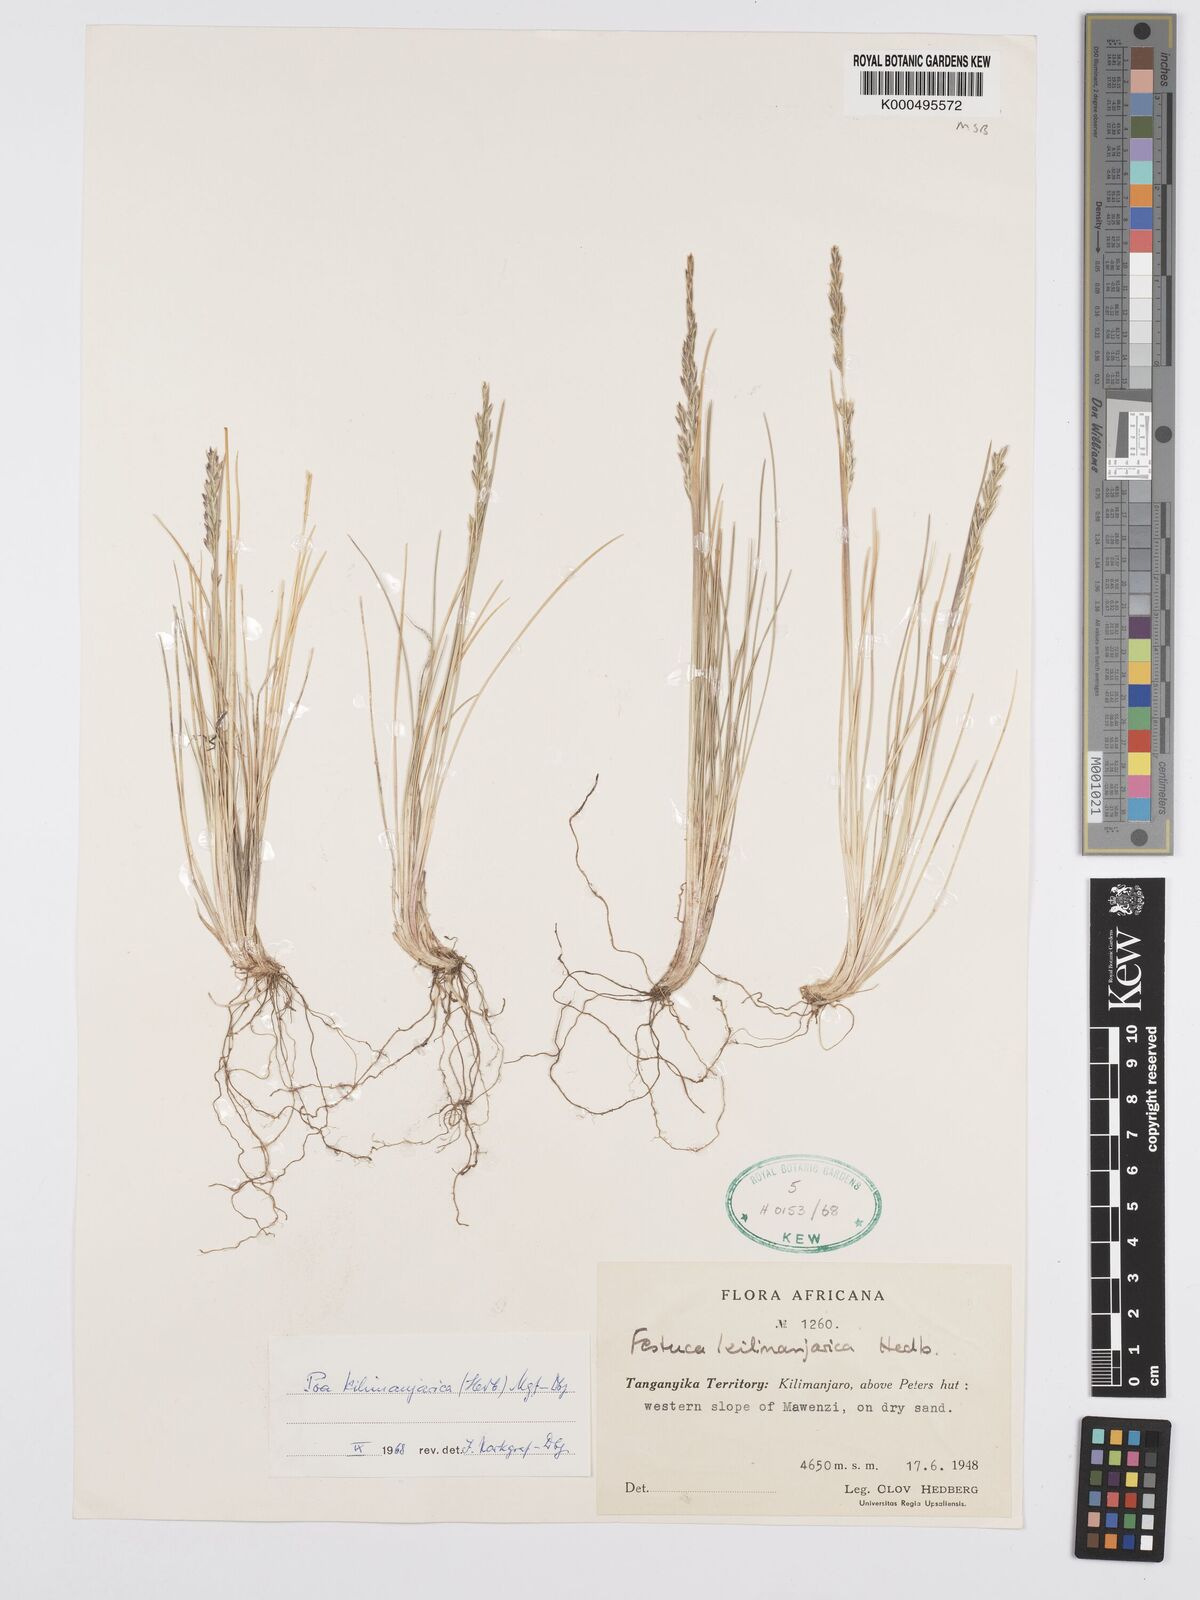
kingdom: Plantae
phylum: Tracheophyta
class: Liliopsida
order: Poales
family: Poaceae
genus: Poa
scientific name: Poa kilimanjarica
